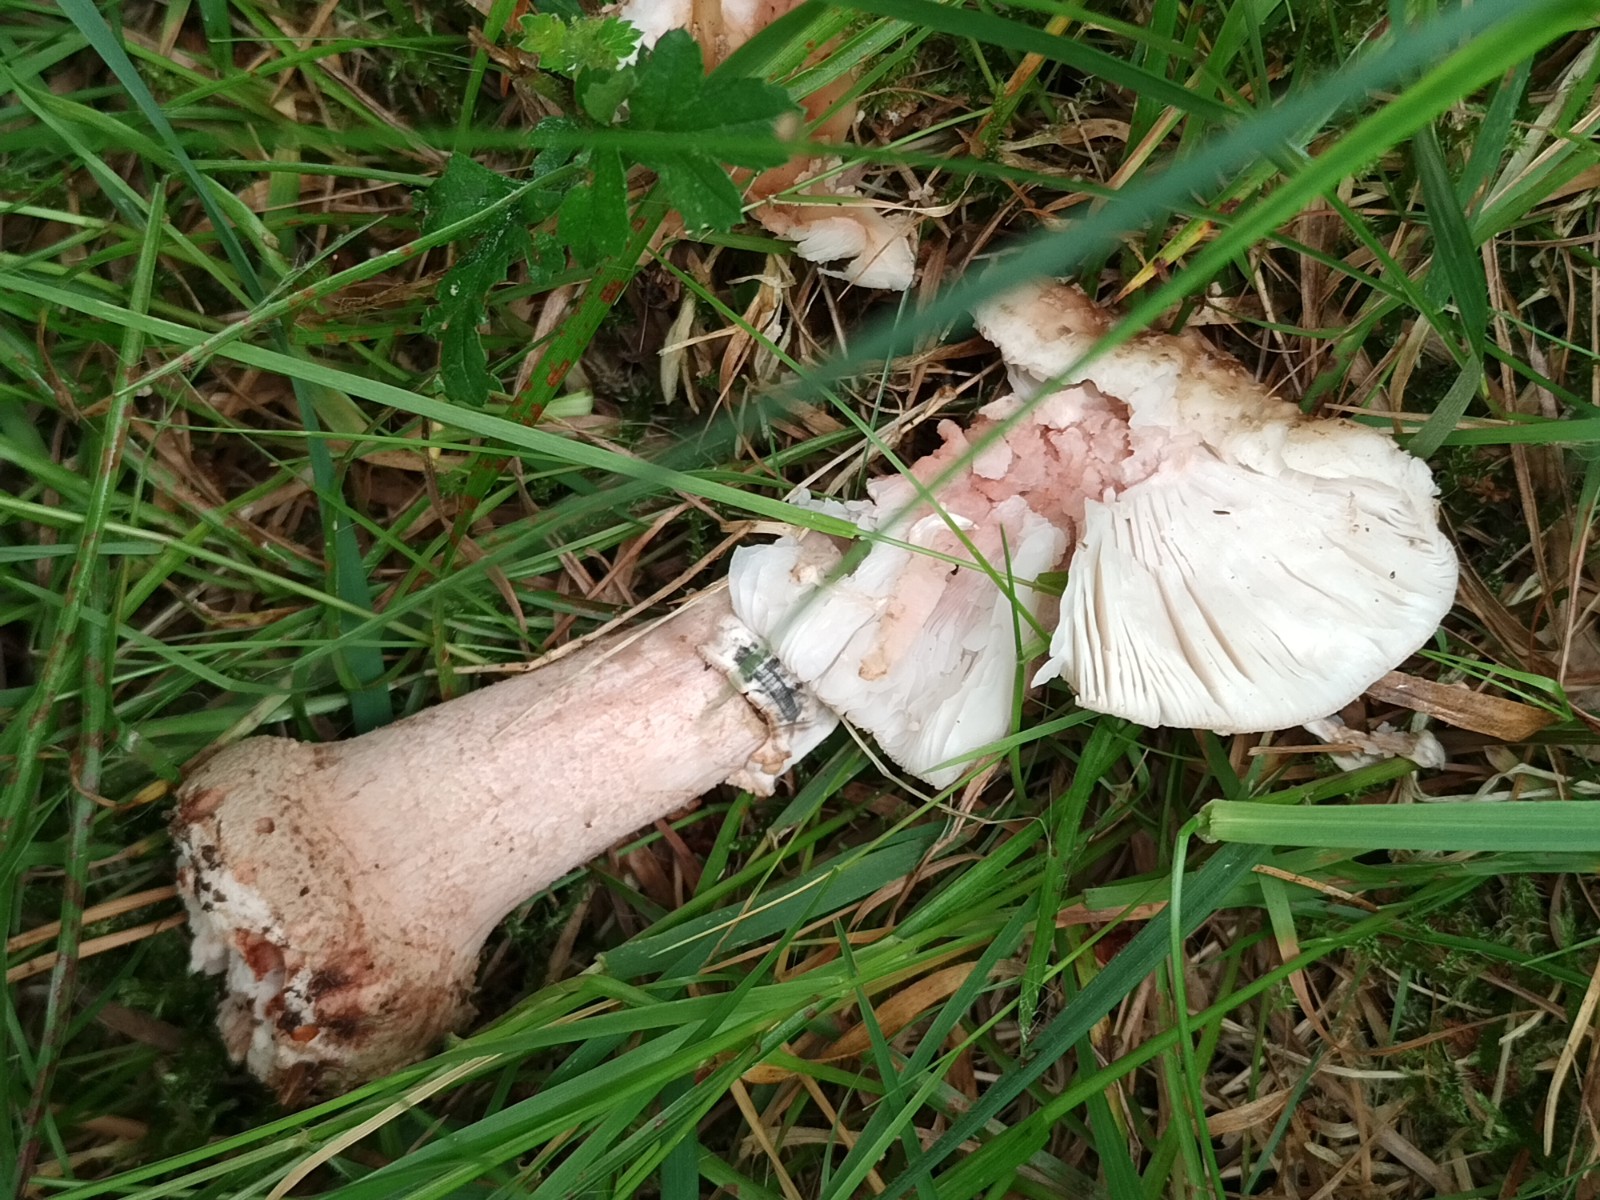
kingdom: Fungi
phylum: Basidiomycota
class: Agaricomycetes
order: Agaricales
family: Amanitaceae
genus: Amanita
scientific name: Amanita rubescens
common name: rødmende fluesvamp
